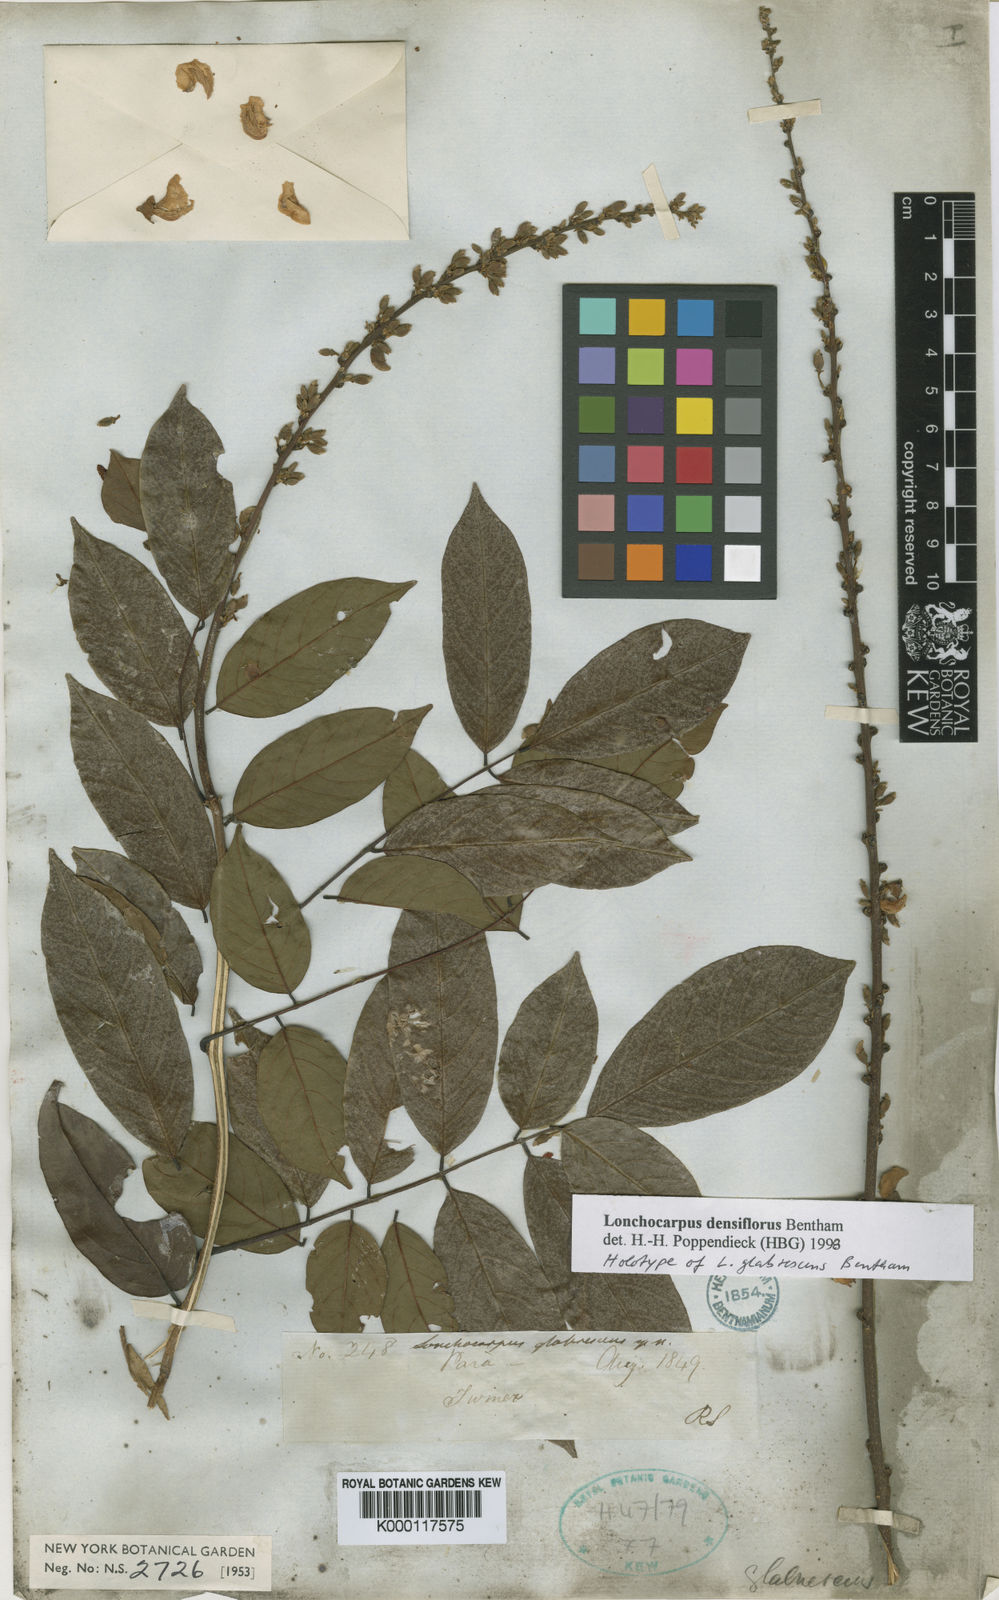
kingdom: Plantae
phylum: Tracheophyta
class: Magnoliopsida
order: Fabales
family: Fabaceae
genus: Deguelia
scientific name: Deguelia densiflora
